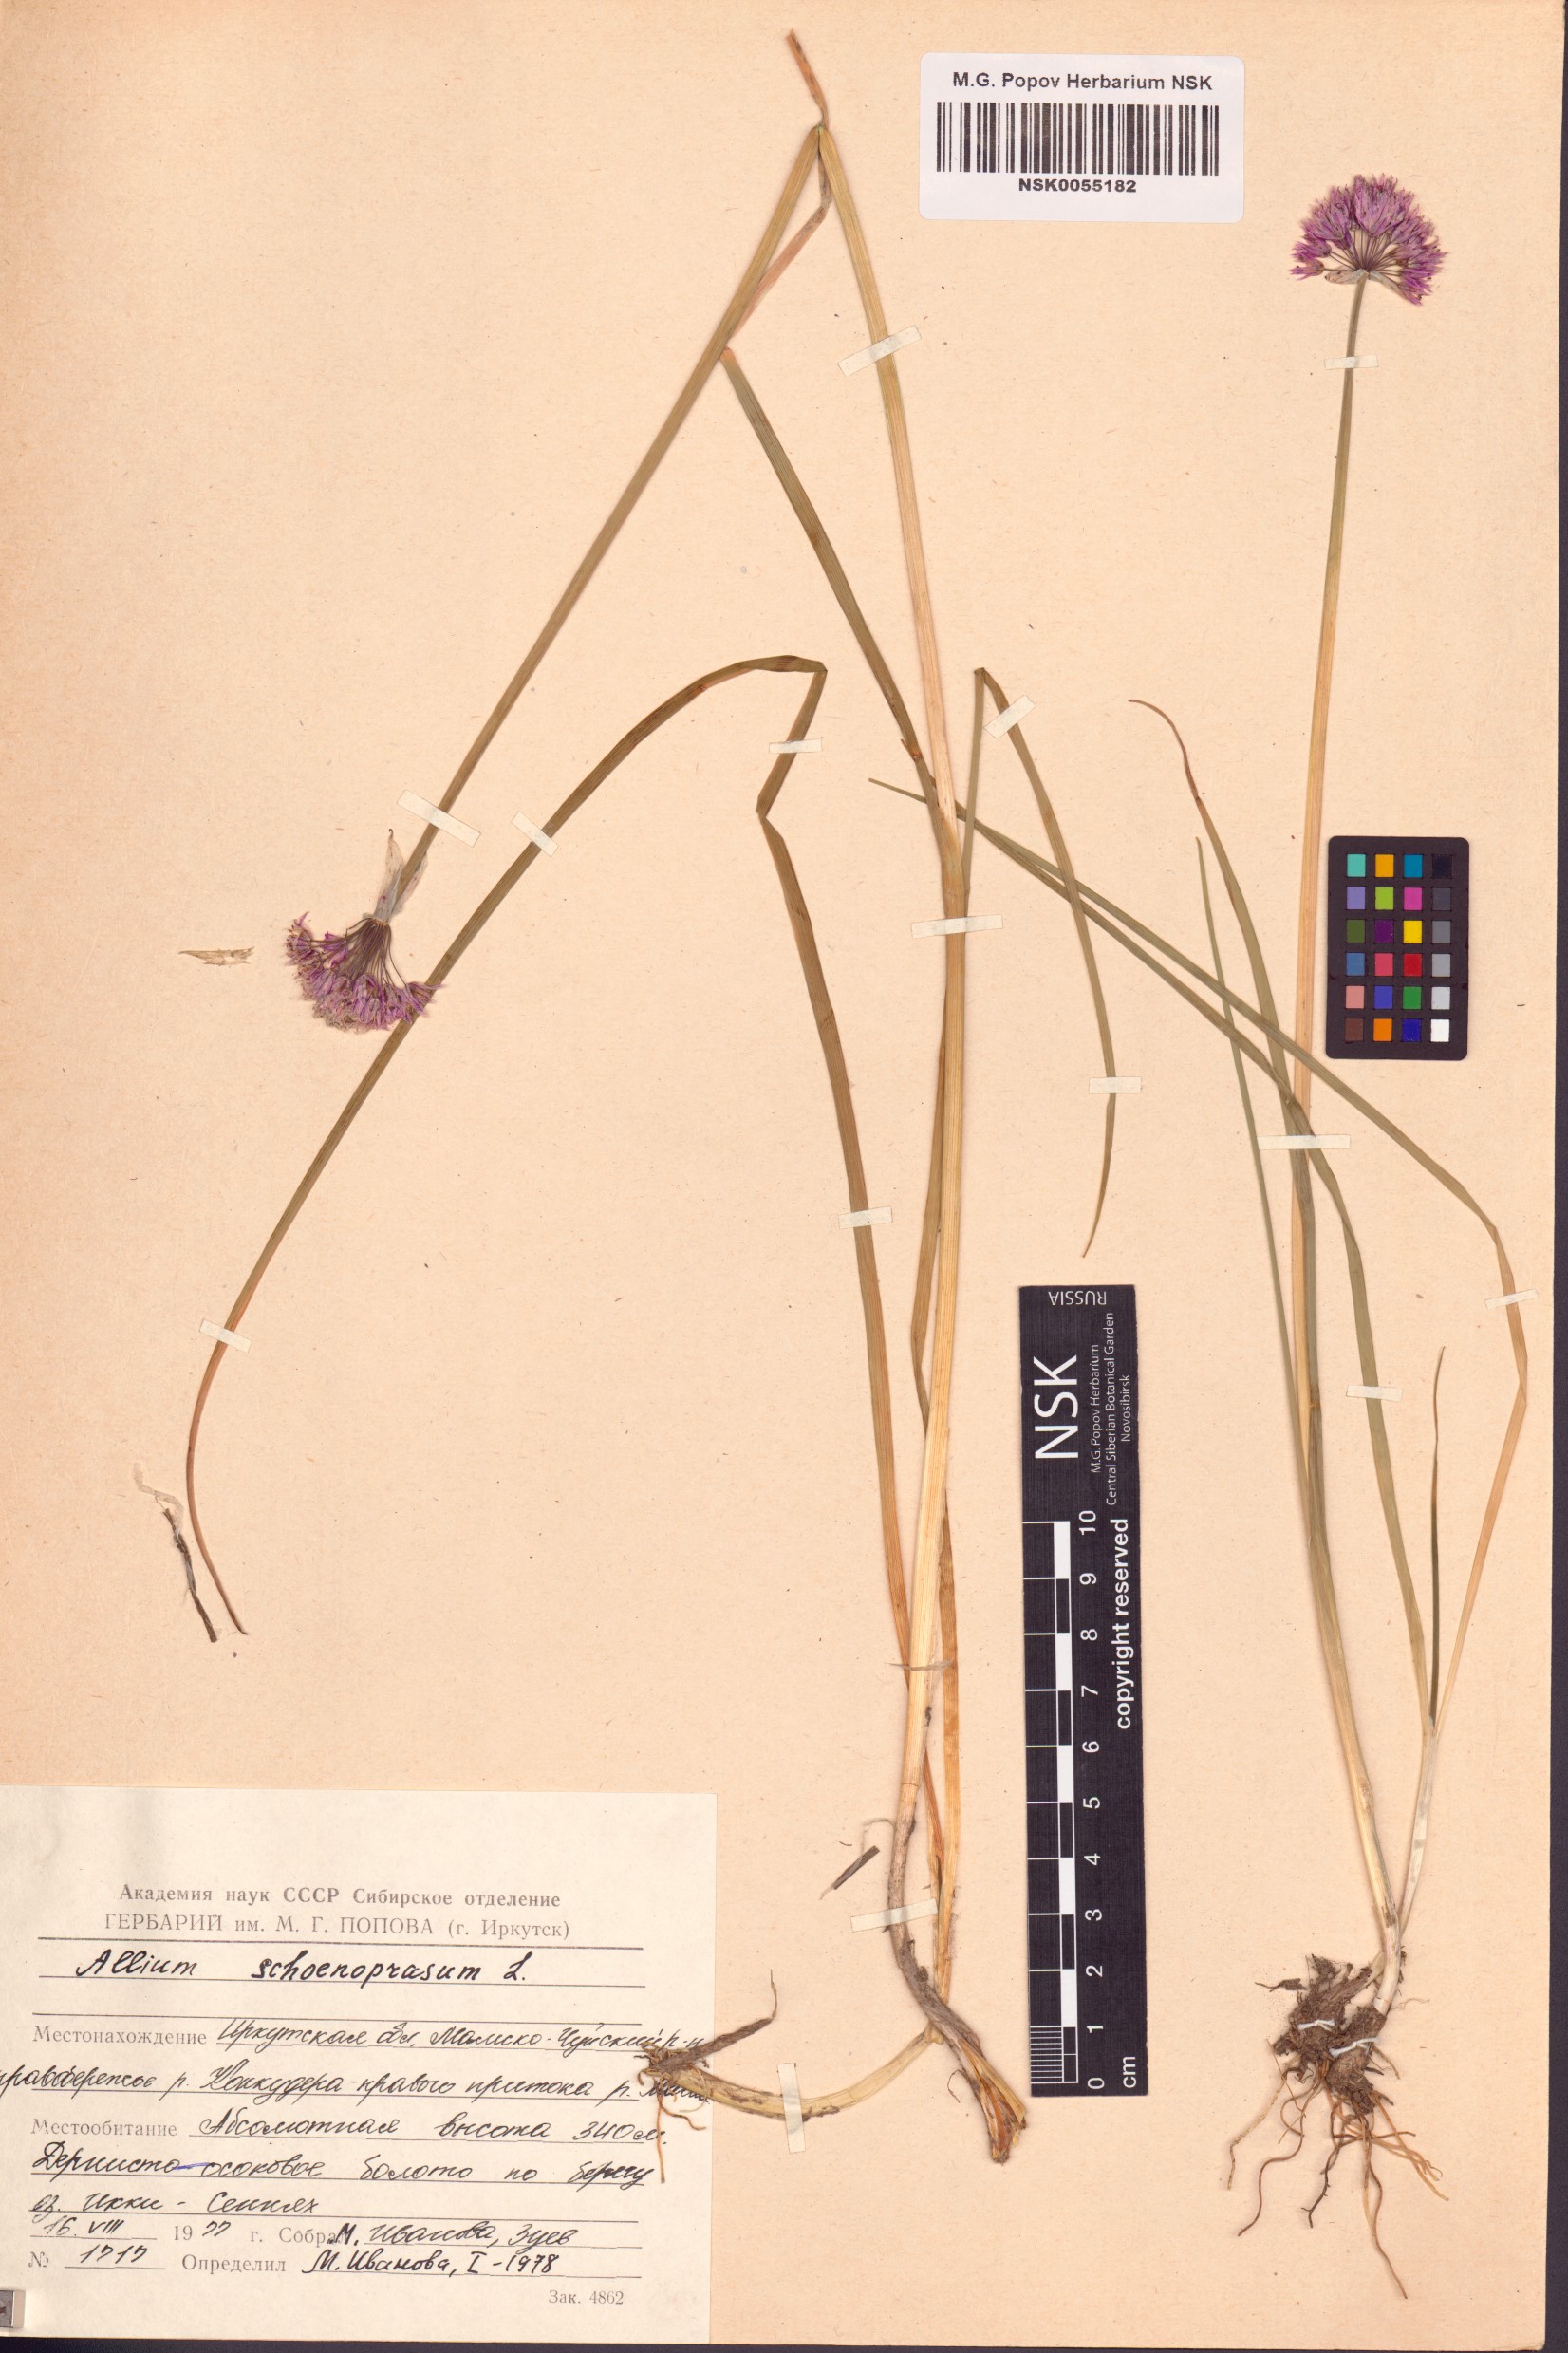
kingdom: Plantae
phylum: Tracheophyta
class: Liliopsida
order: Asparagales
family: Amaryllidaceae
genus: Allium
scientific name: Allium schoenoprasum
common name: Chives
